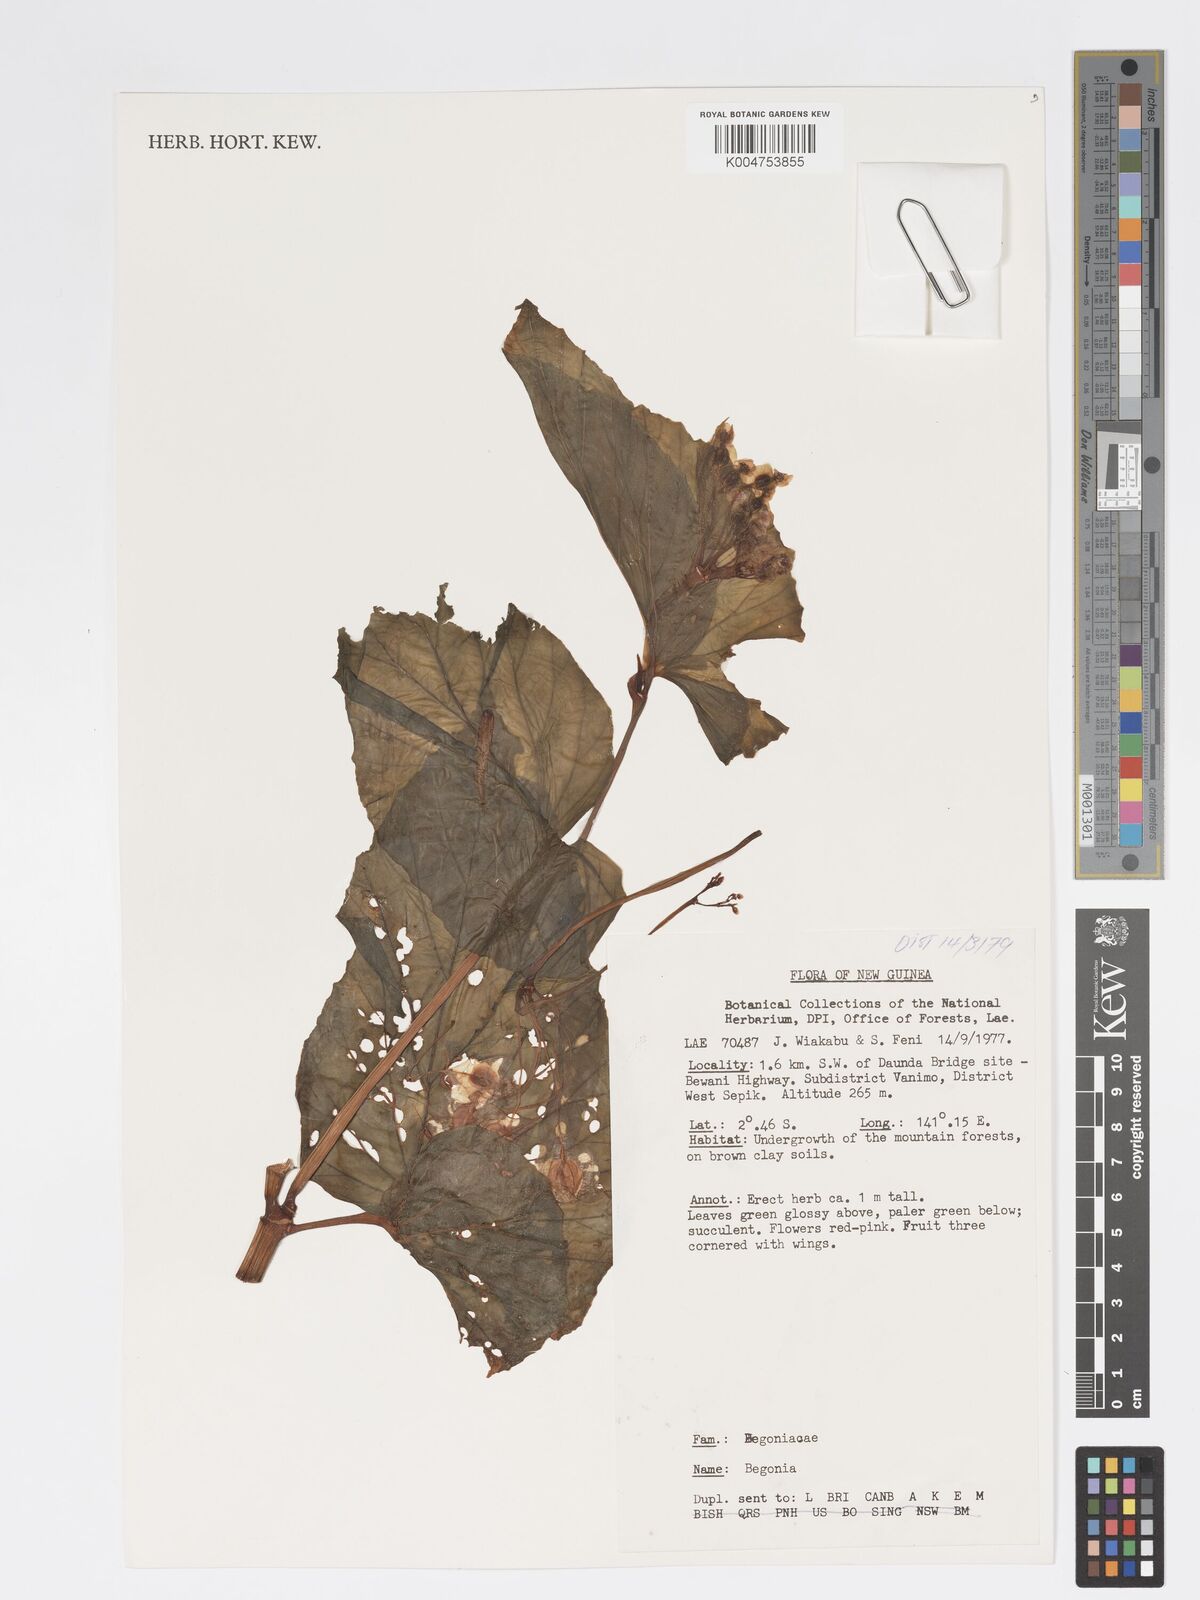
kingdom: Plantae
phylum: Tracheophyta
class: Magnoliopsida
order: Cucurbitales
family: Begoniaceae
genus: Begonia
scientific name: Begonia
